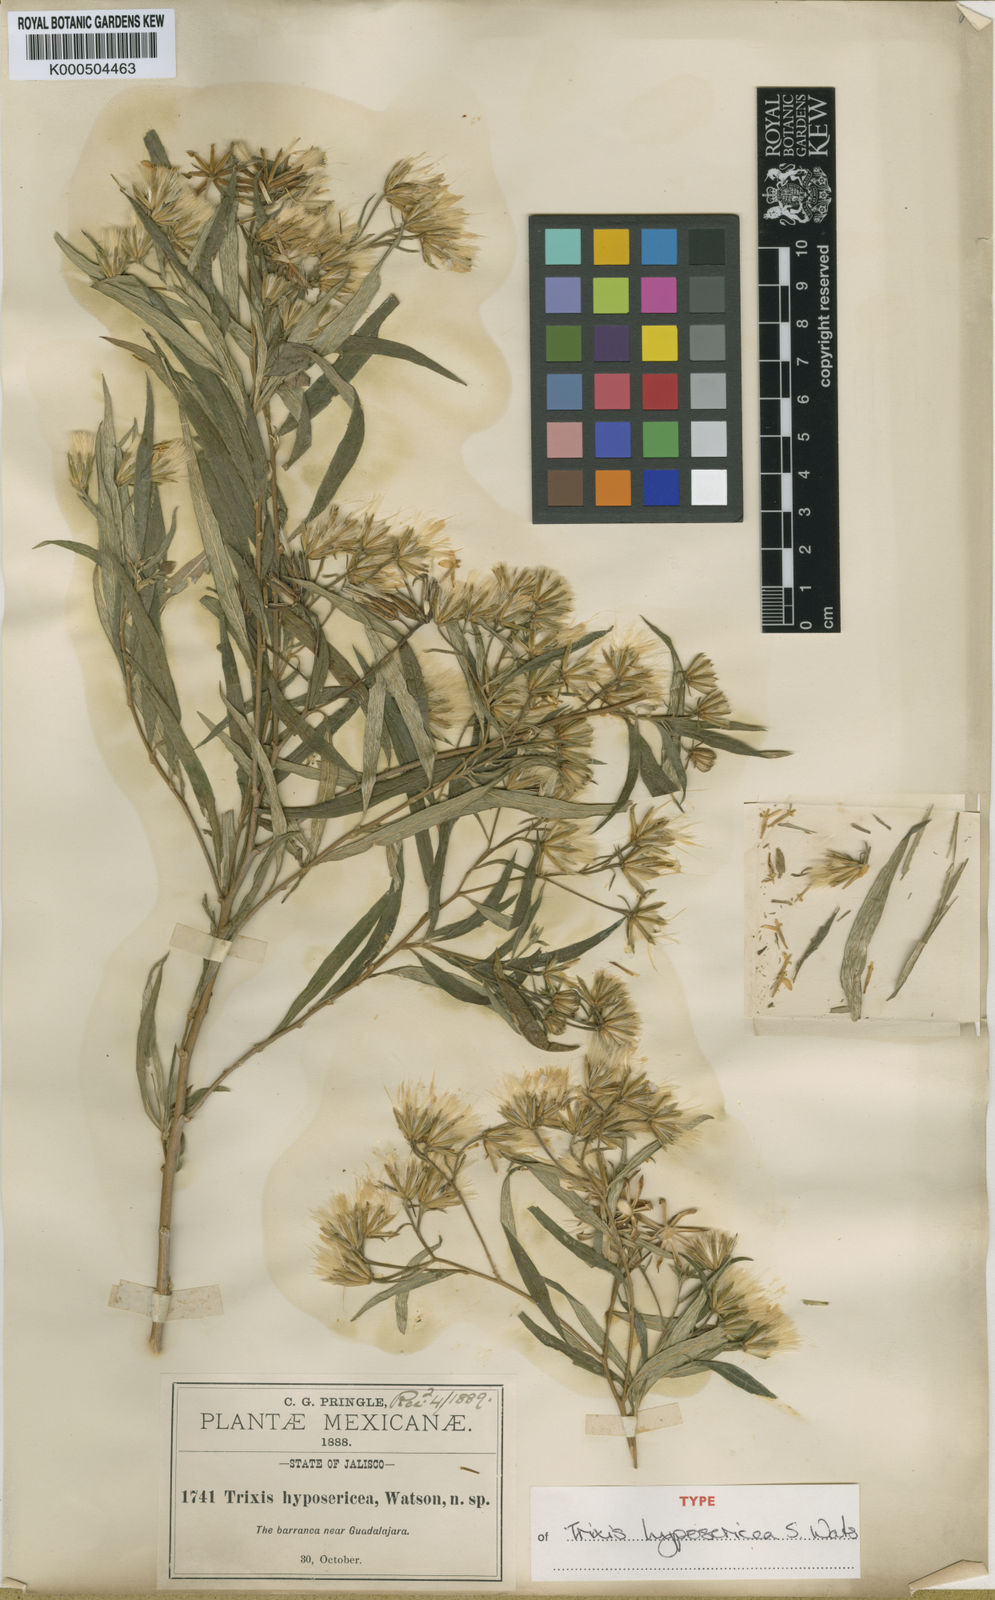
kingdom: Plantae
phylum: Tracheophyta
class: Magnoliopsida
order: Asterales
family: Asteraceae
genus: Trixis
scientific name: Trixis hyposericea
